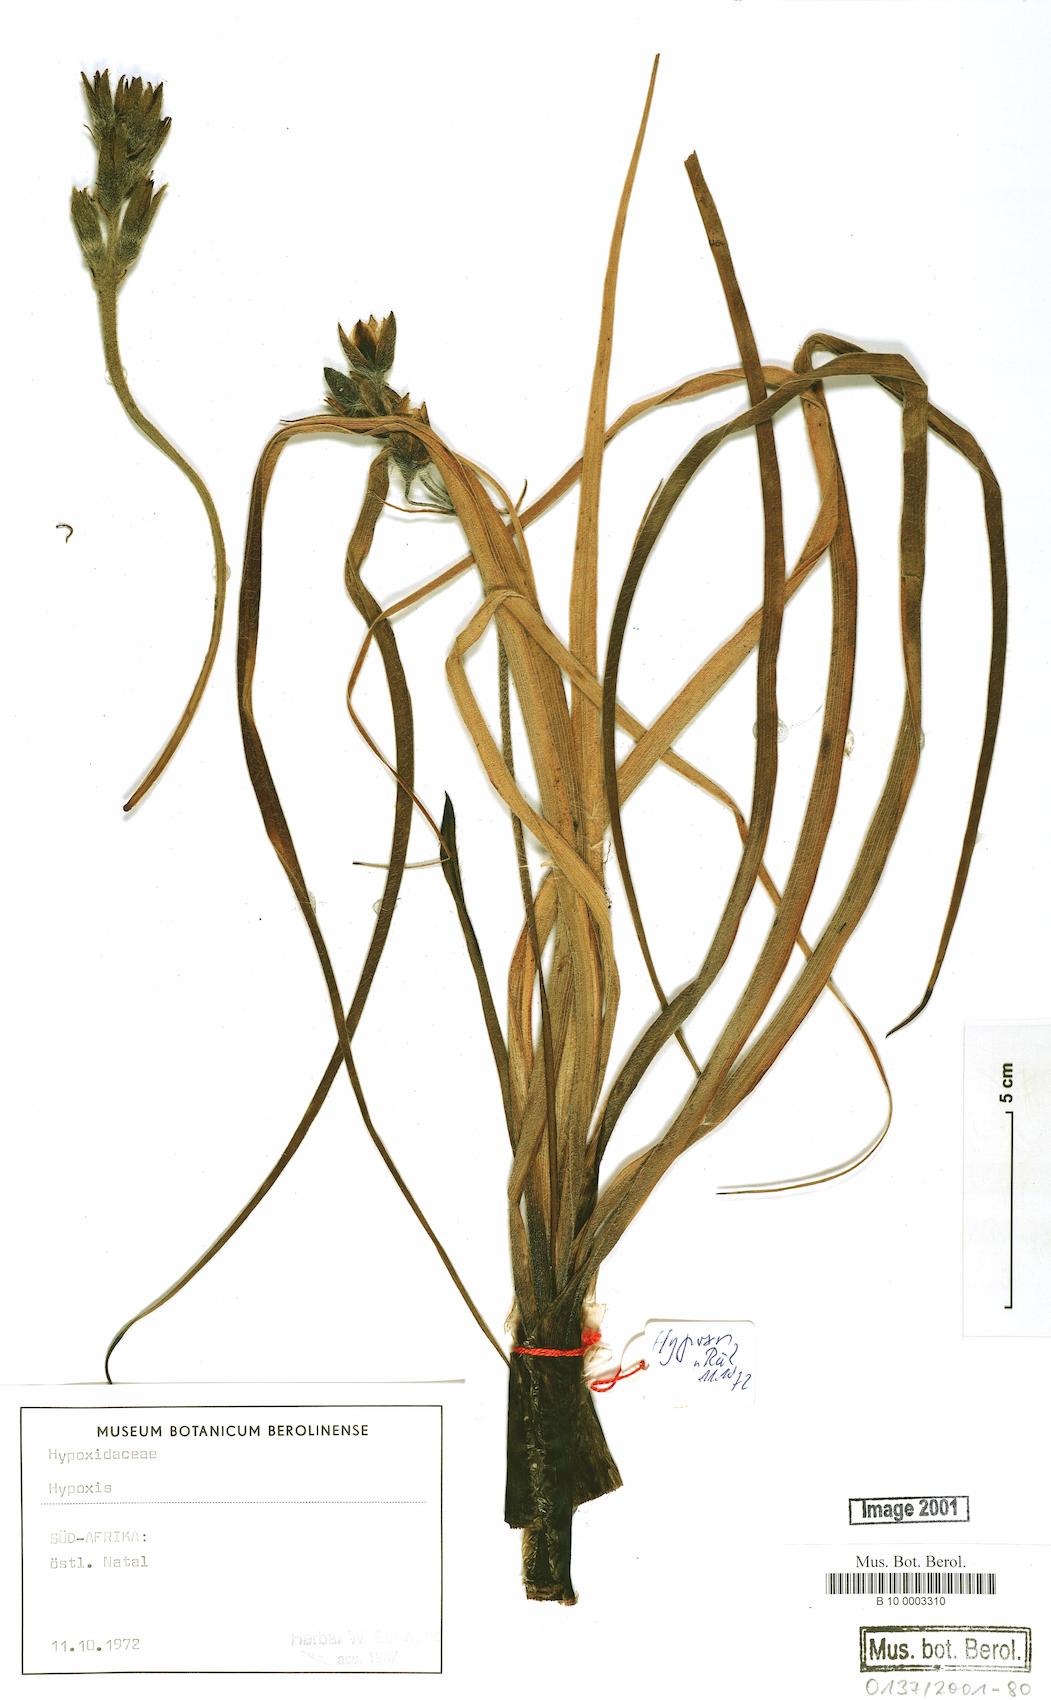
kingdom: Plantae
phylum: Tracheophyta
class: Liliopsida
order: Asparagales
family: Hypoxidaceae
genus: Hypoxis
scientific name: Hypoxis
